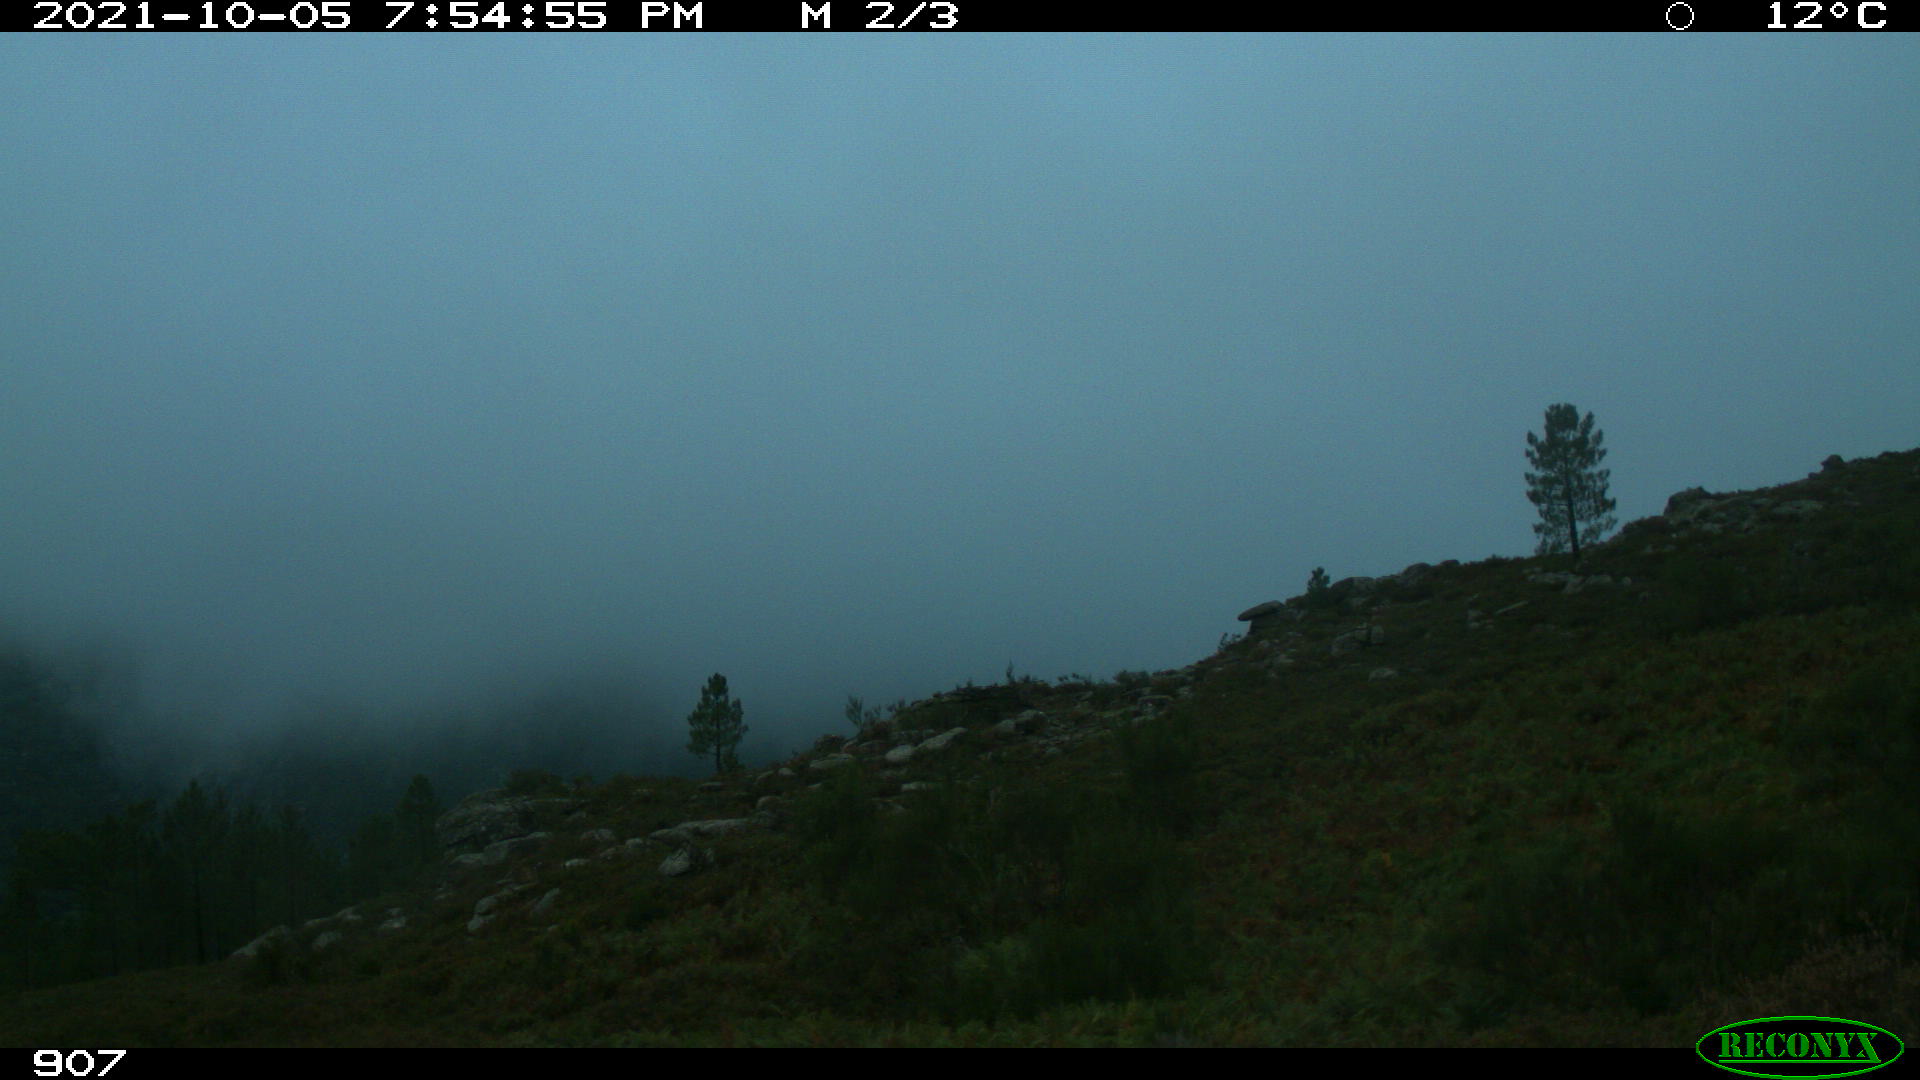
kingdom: Animalia
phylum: Chordata
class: Mammalia
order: Perissodactyla
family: Equidae
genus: Equus
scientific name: Equus caballus
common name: Horse
